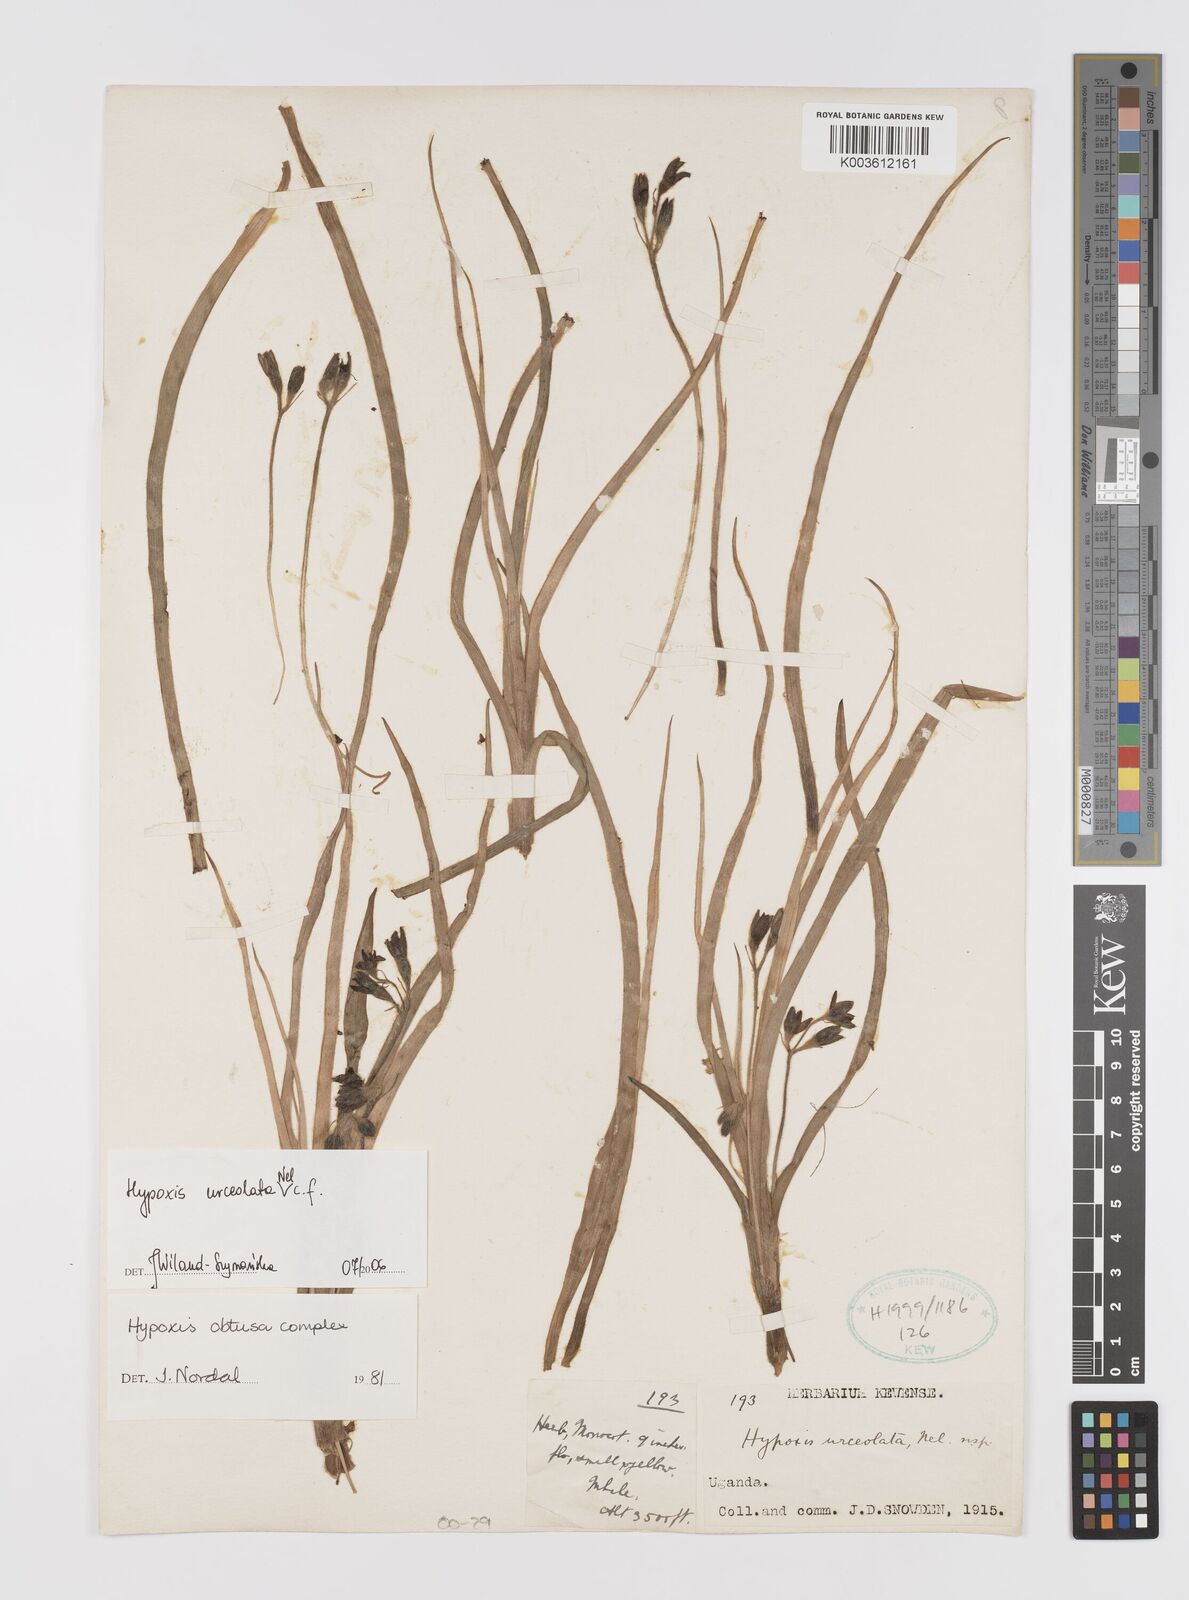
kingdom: Plantae
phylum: Tracheophyta
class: Liliopsida
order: Asparagales
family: Hypoxidaceae
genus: Hypoxis
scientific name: Hypoxis urceolata
